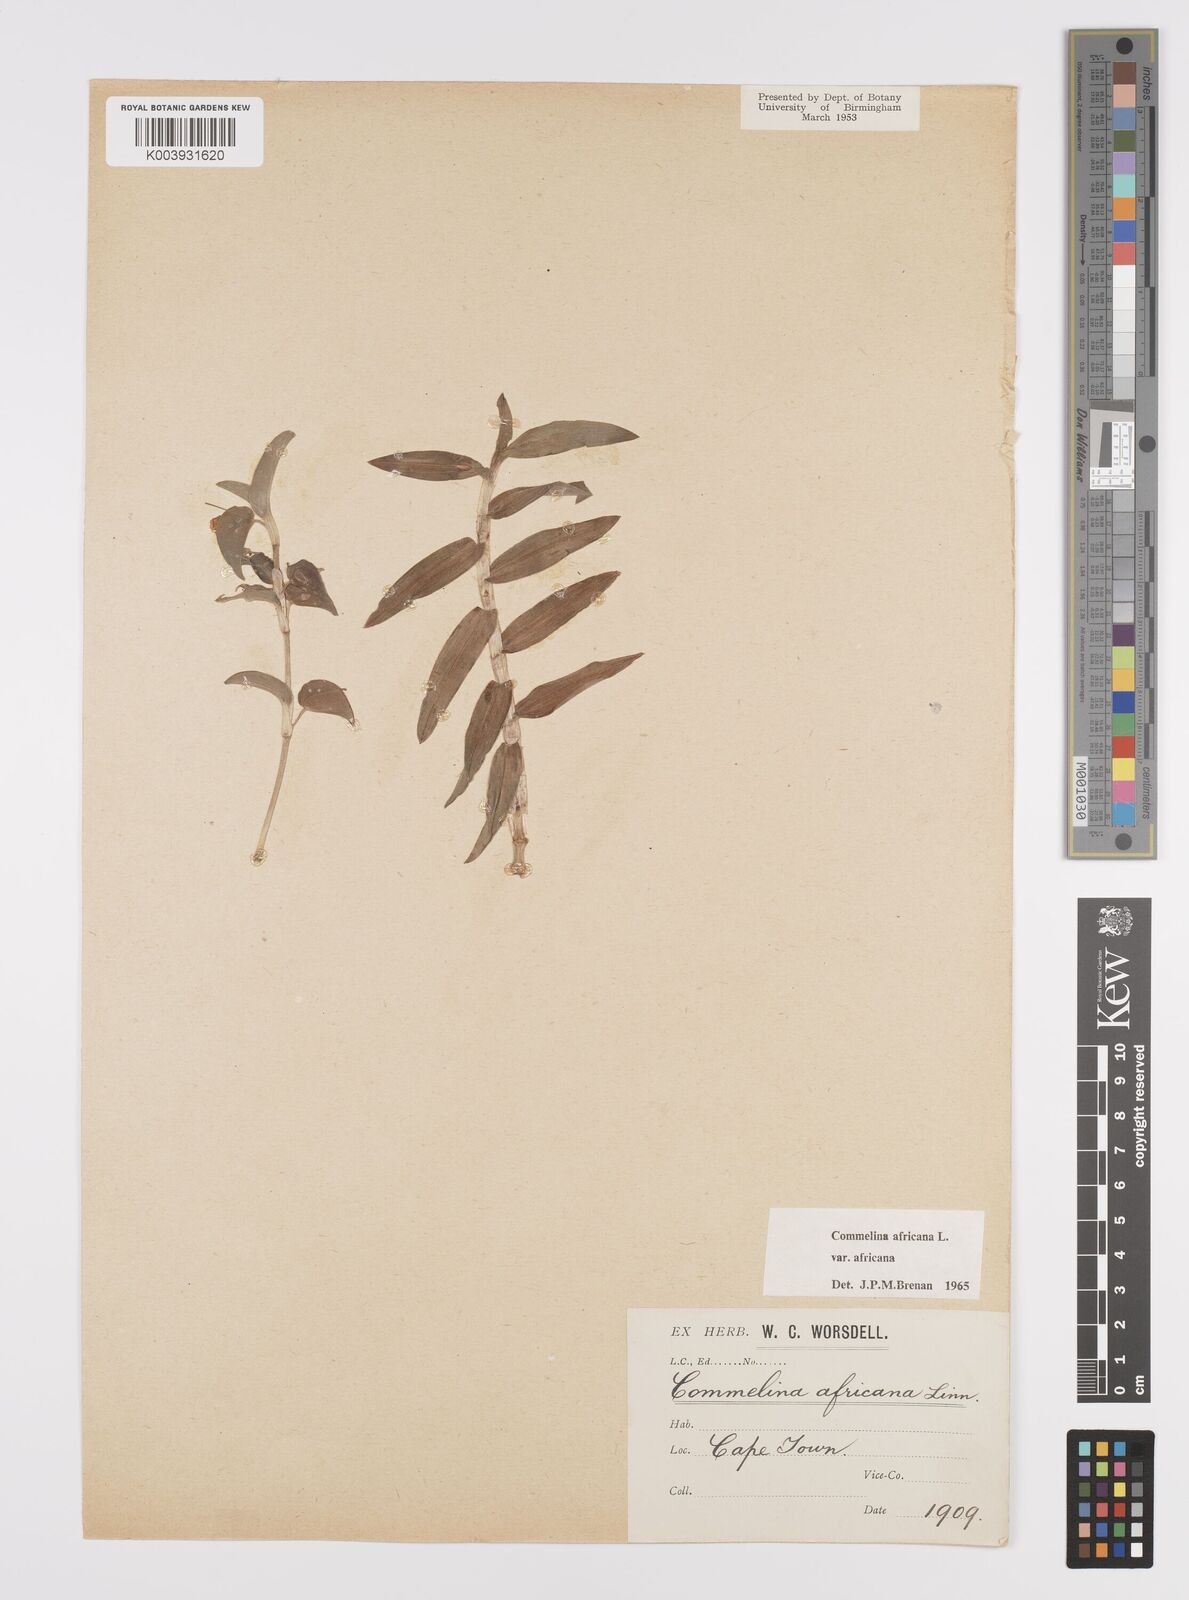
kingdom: Plantae
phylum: Tracheophyta
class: Liliopsida
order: Commelinales
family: Commelinaceae
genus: Commelina
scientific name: Commelina africana
